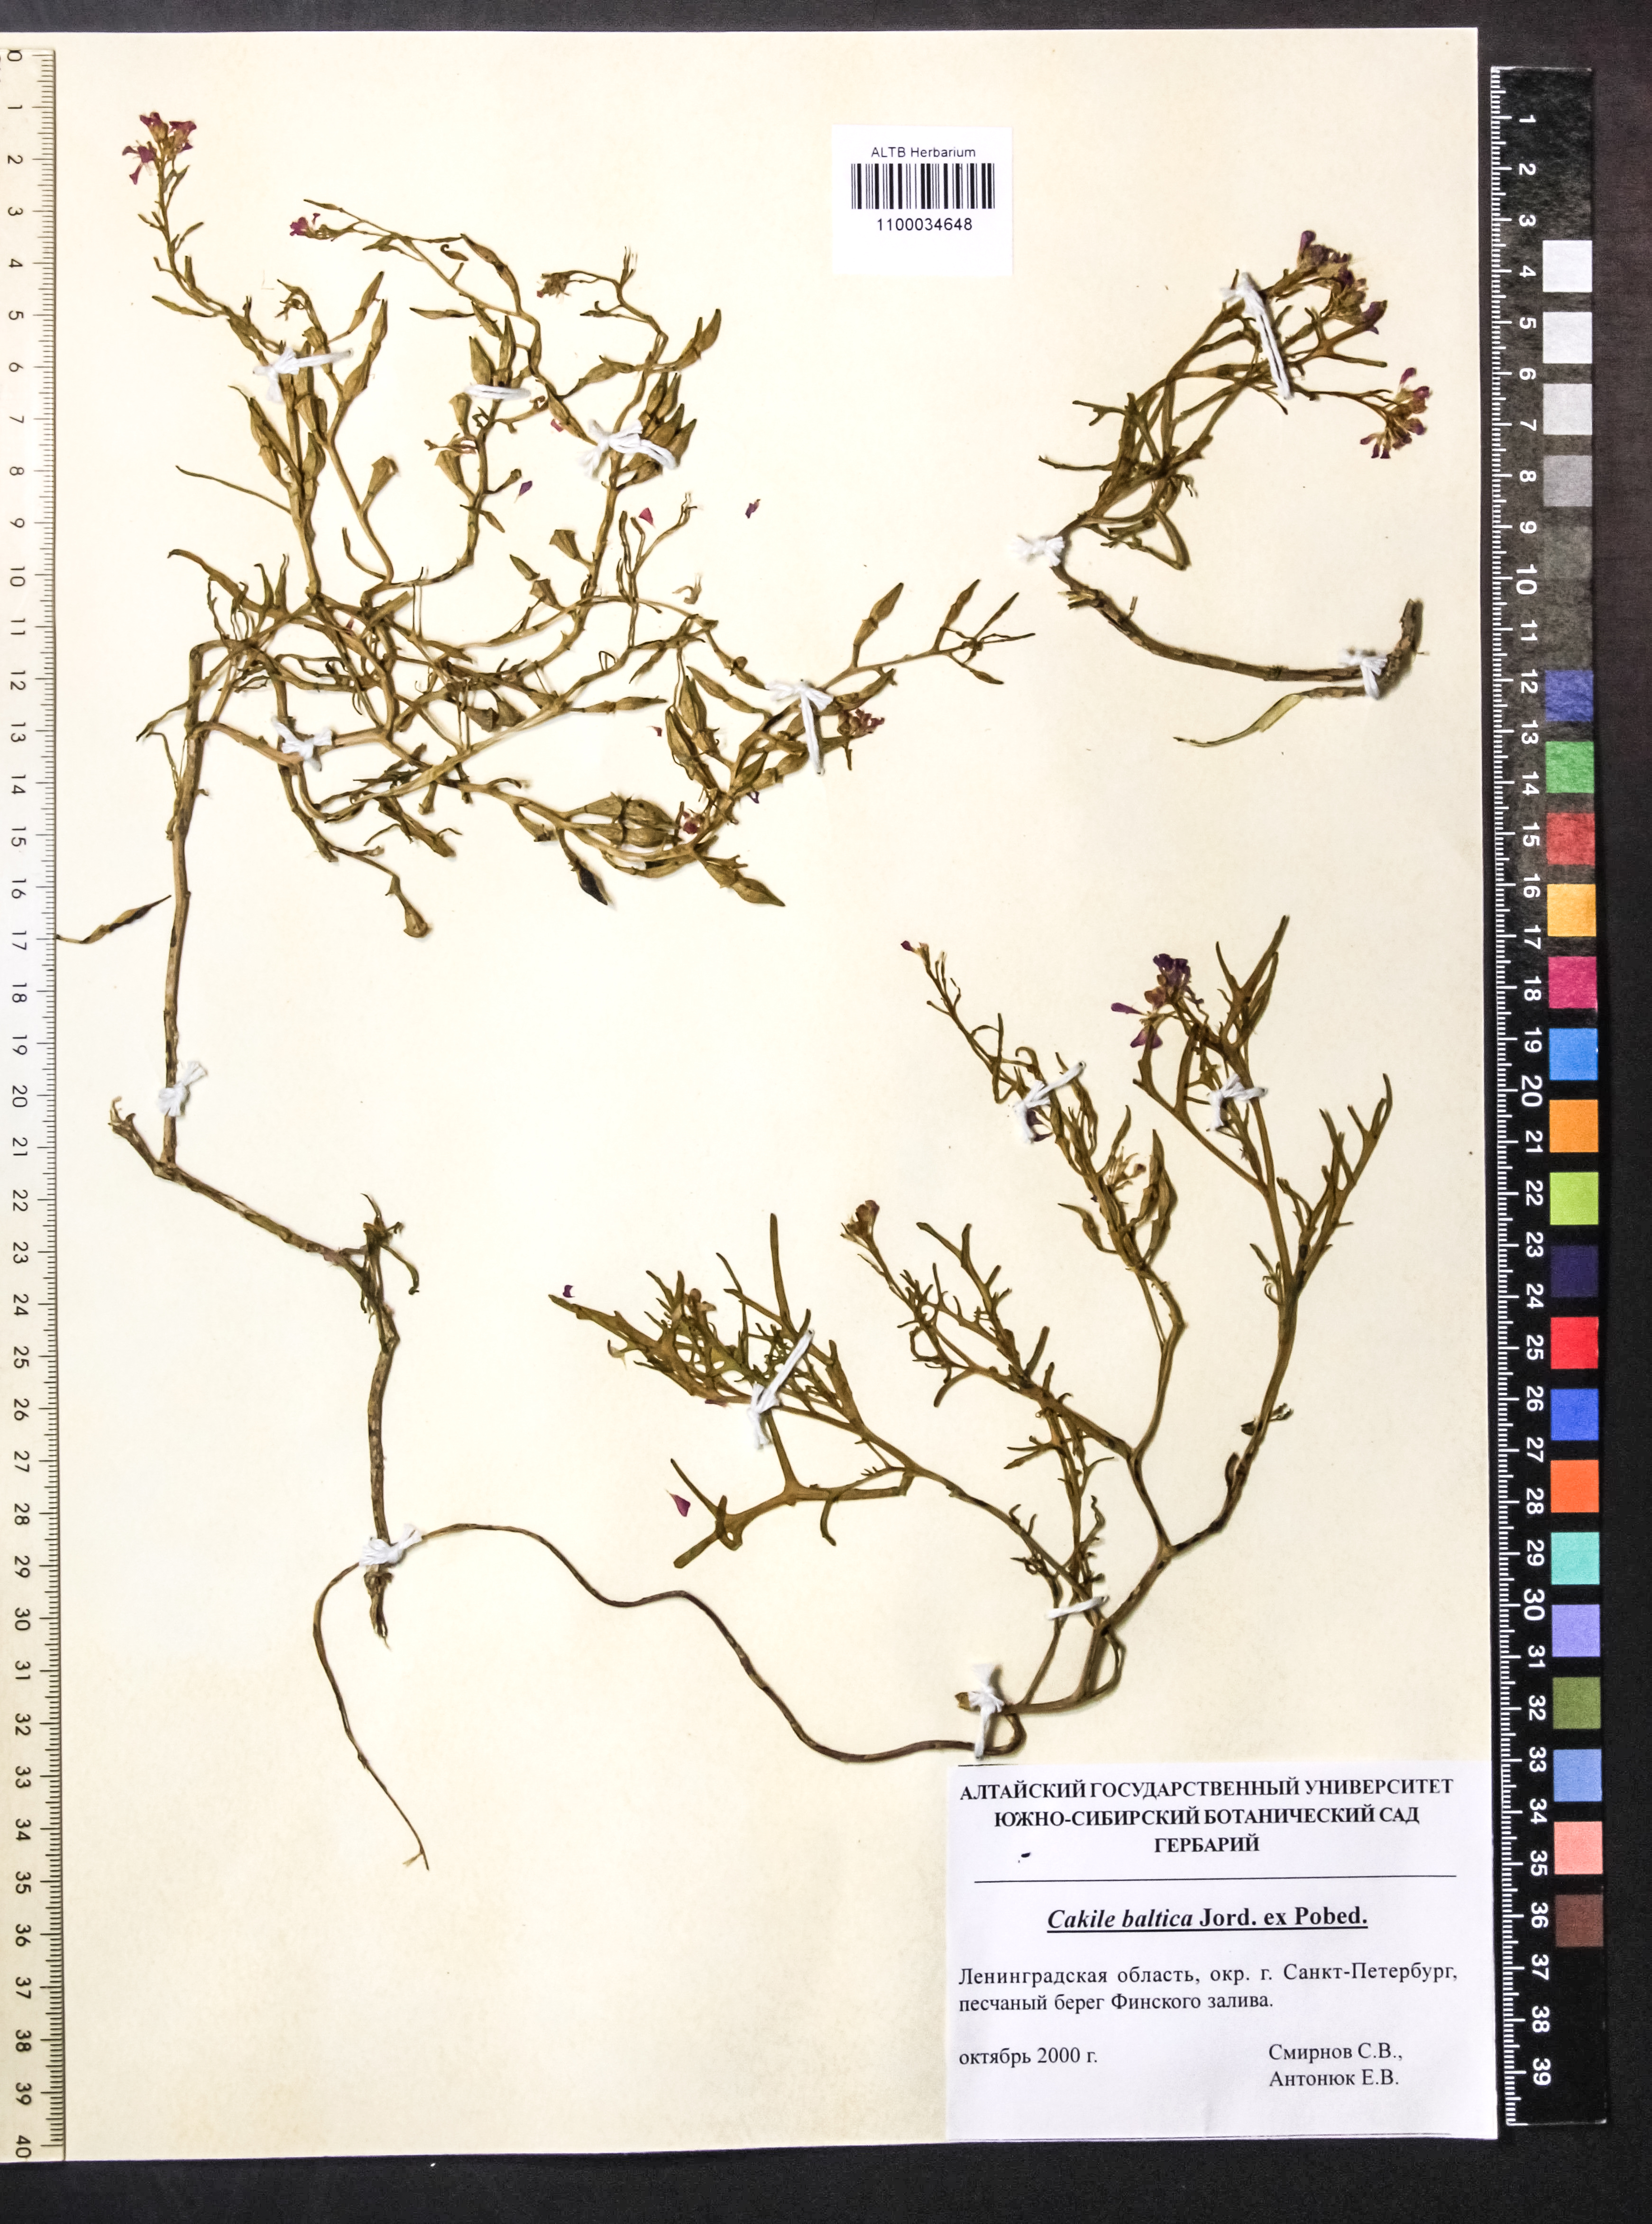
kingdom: Plantae
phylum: Tracheophyta
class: Magnoliopsida
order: Brassicales
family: Brassicaceae
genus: Cakile
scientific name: Cakile maritima
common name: Sea rocket
